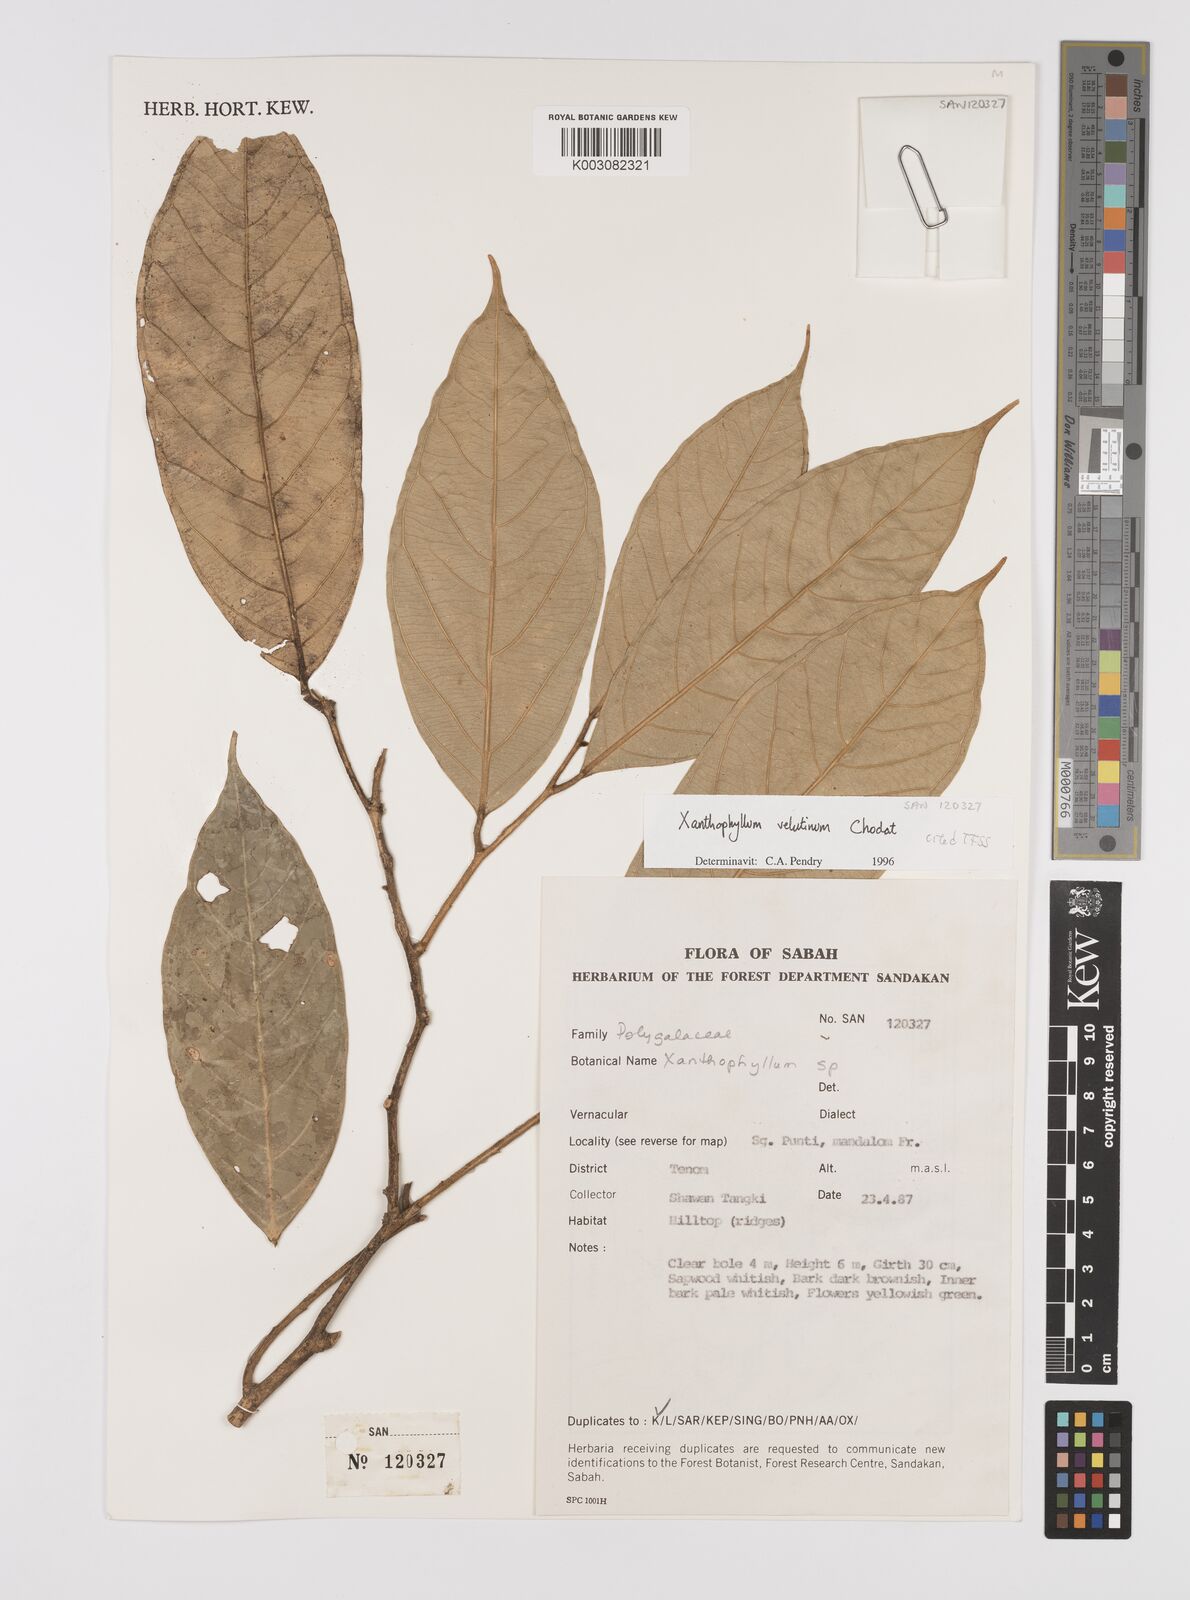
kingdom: Plantae
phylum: Tracheophyta
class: Magnoliopsida
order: Fabales
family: Polygalaceae
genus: Xanthophyllum
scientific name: Xanthophyllum velutinum
